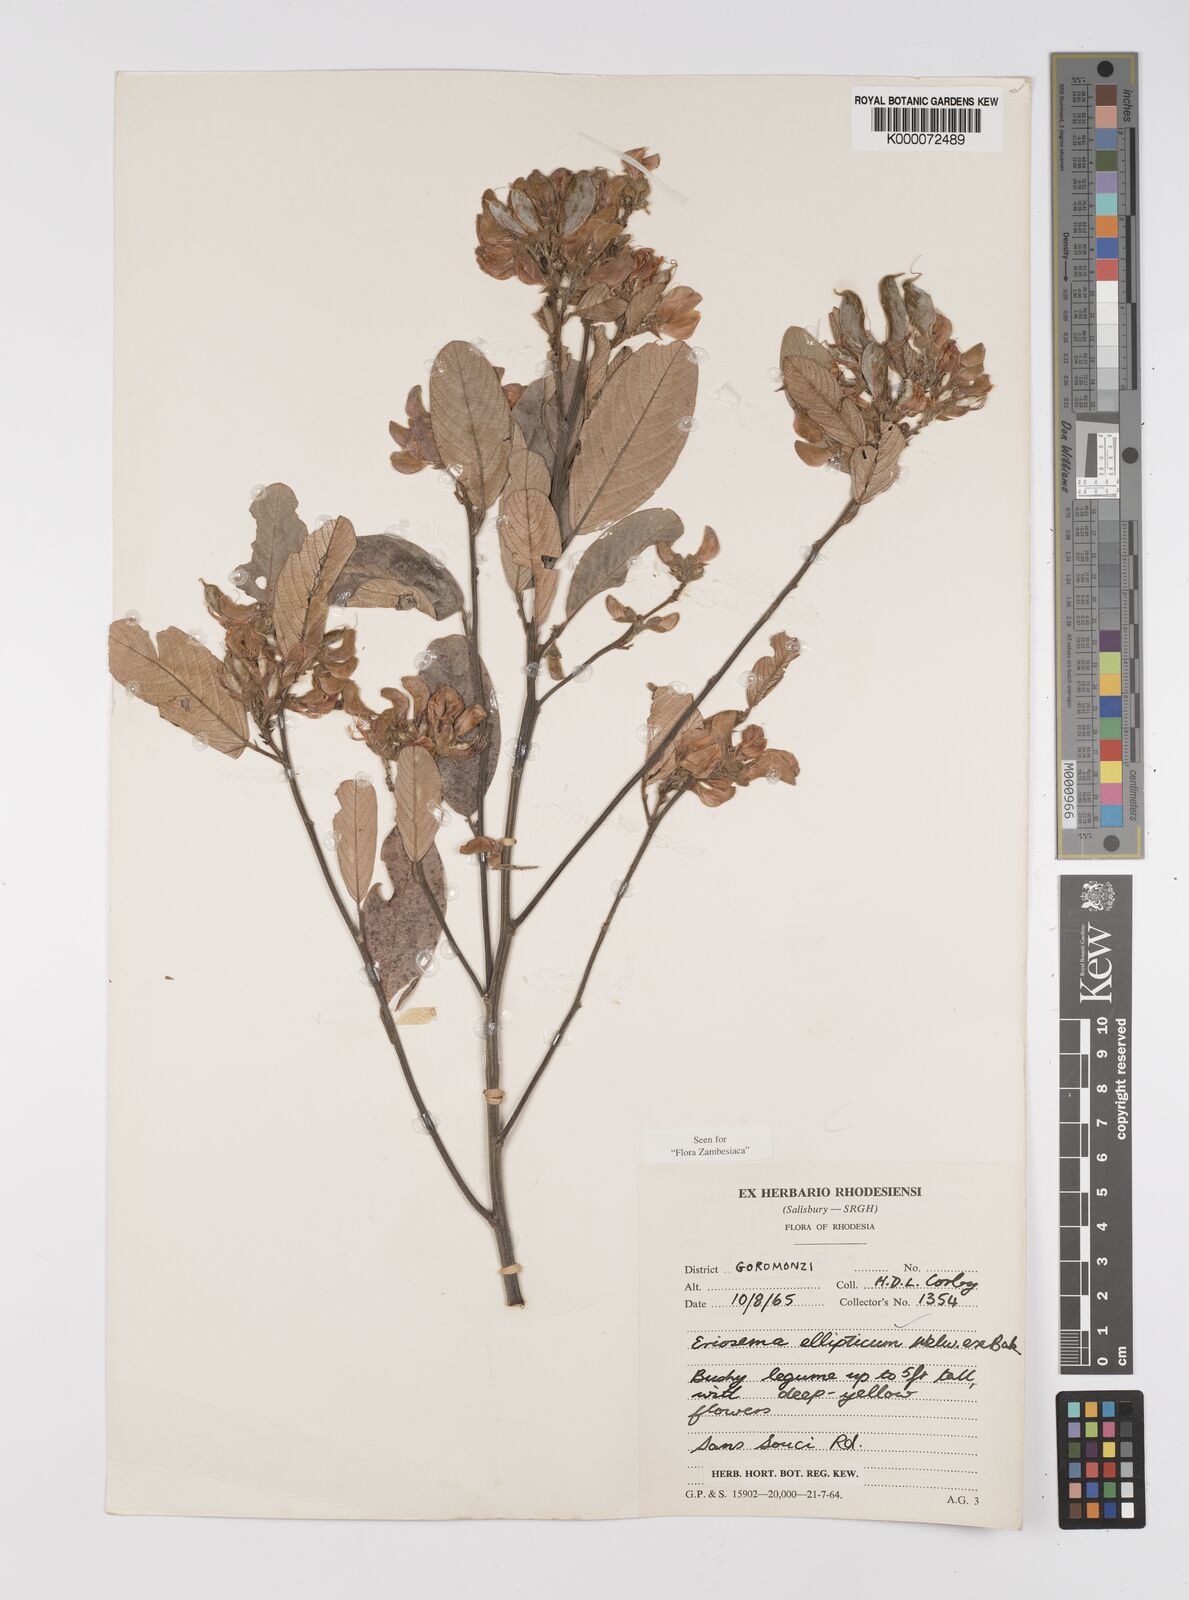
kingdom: Plantae
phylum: Tracheophyta
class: Magnoliopsida
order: Fabales
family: Fabaceae
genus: Eriosema
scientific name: Eriosema ellipticum
